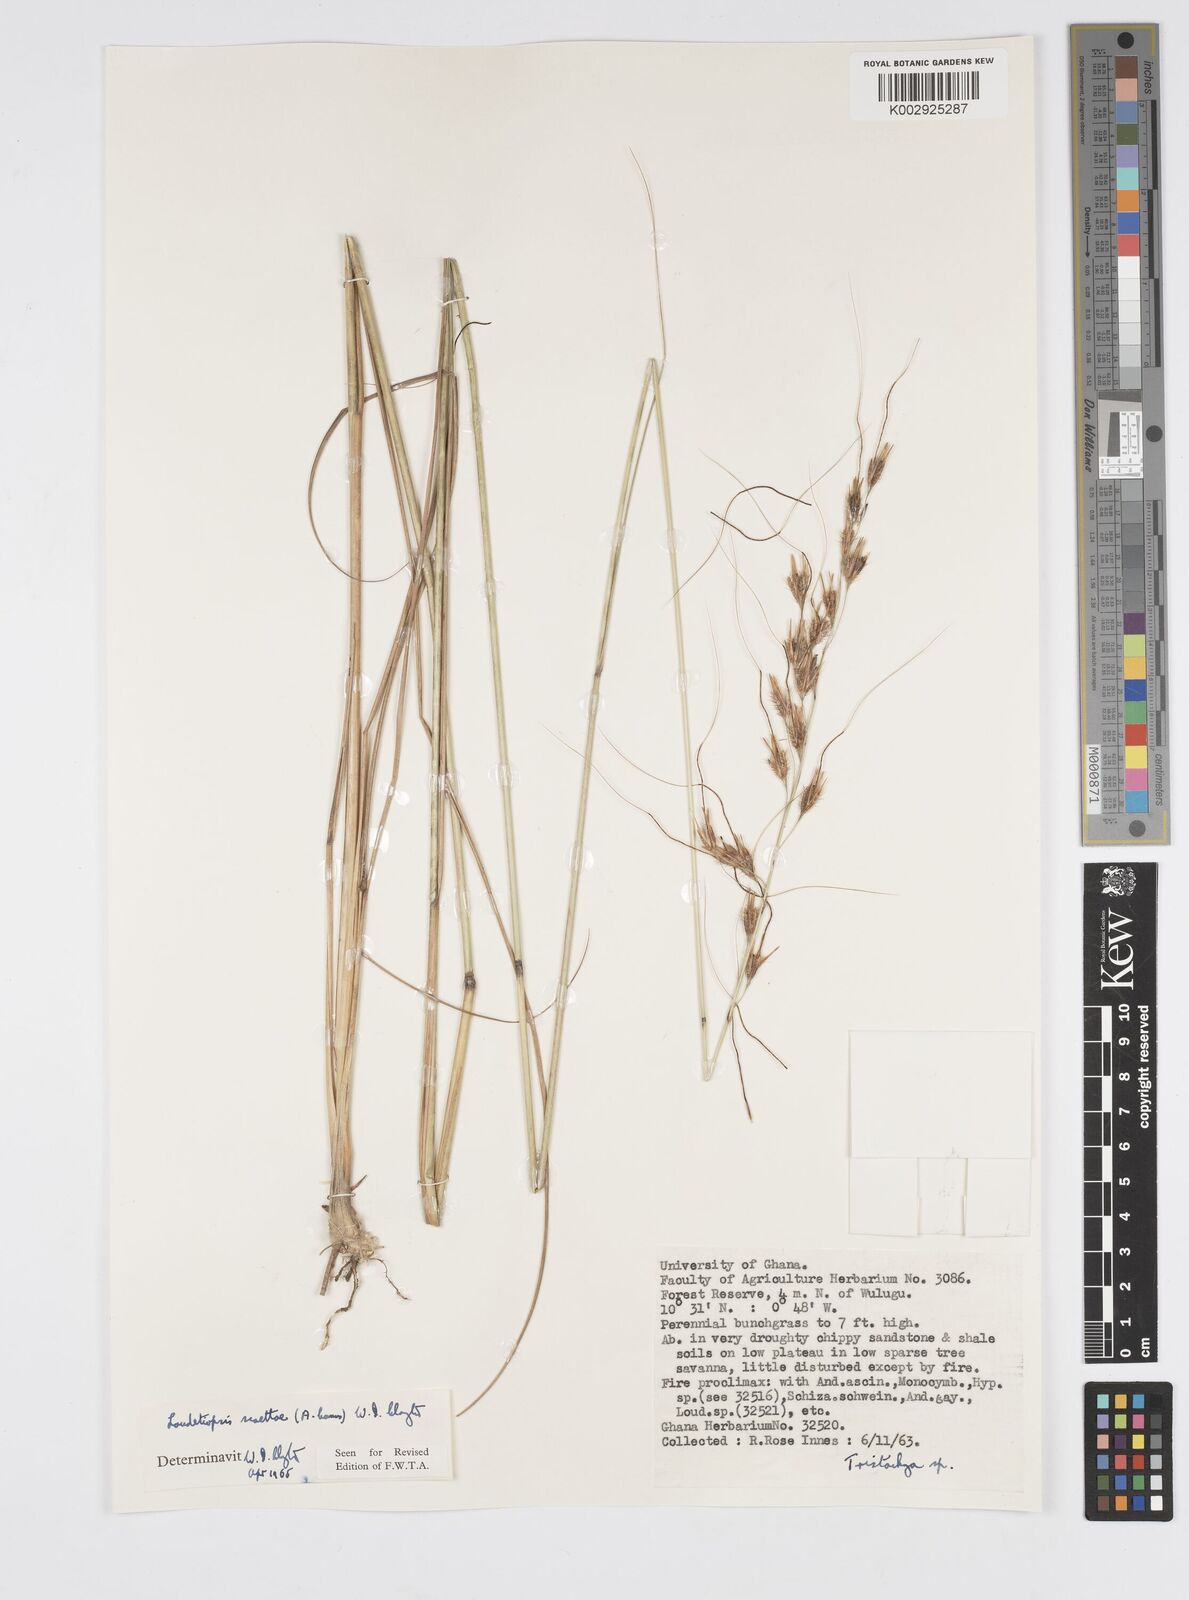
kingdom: Plantae
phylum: Tracheophyta
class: Liliopsida
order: Poales
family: Poaceae
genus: Loudetiopsis
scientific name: Loudetiopsis scaettae
